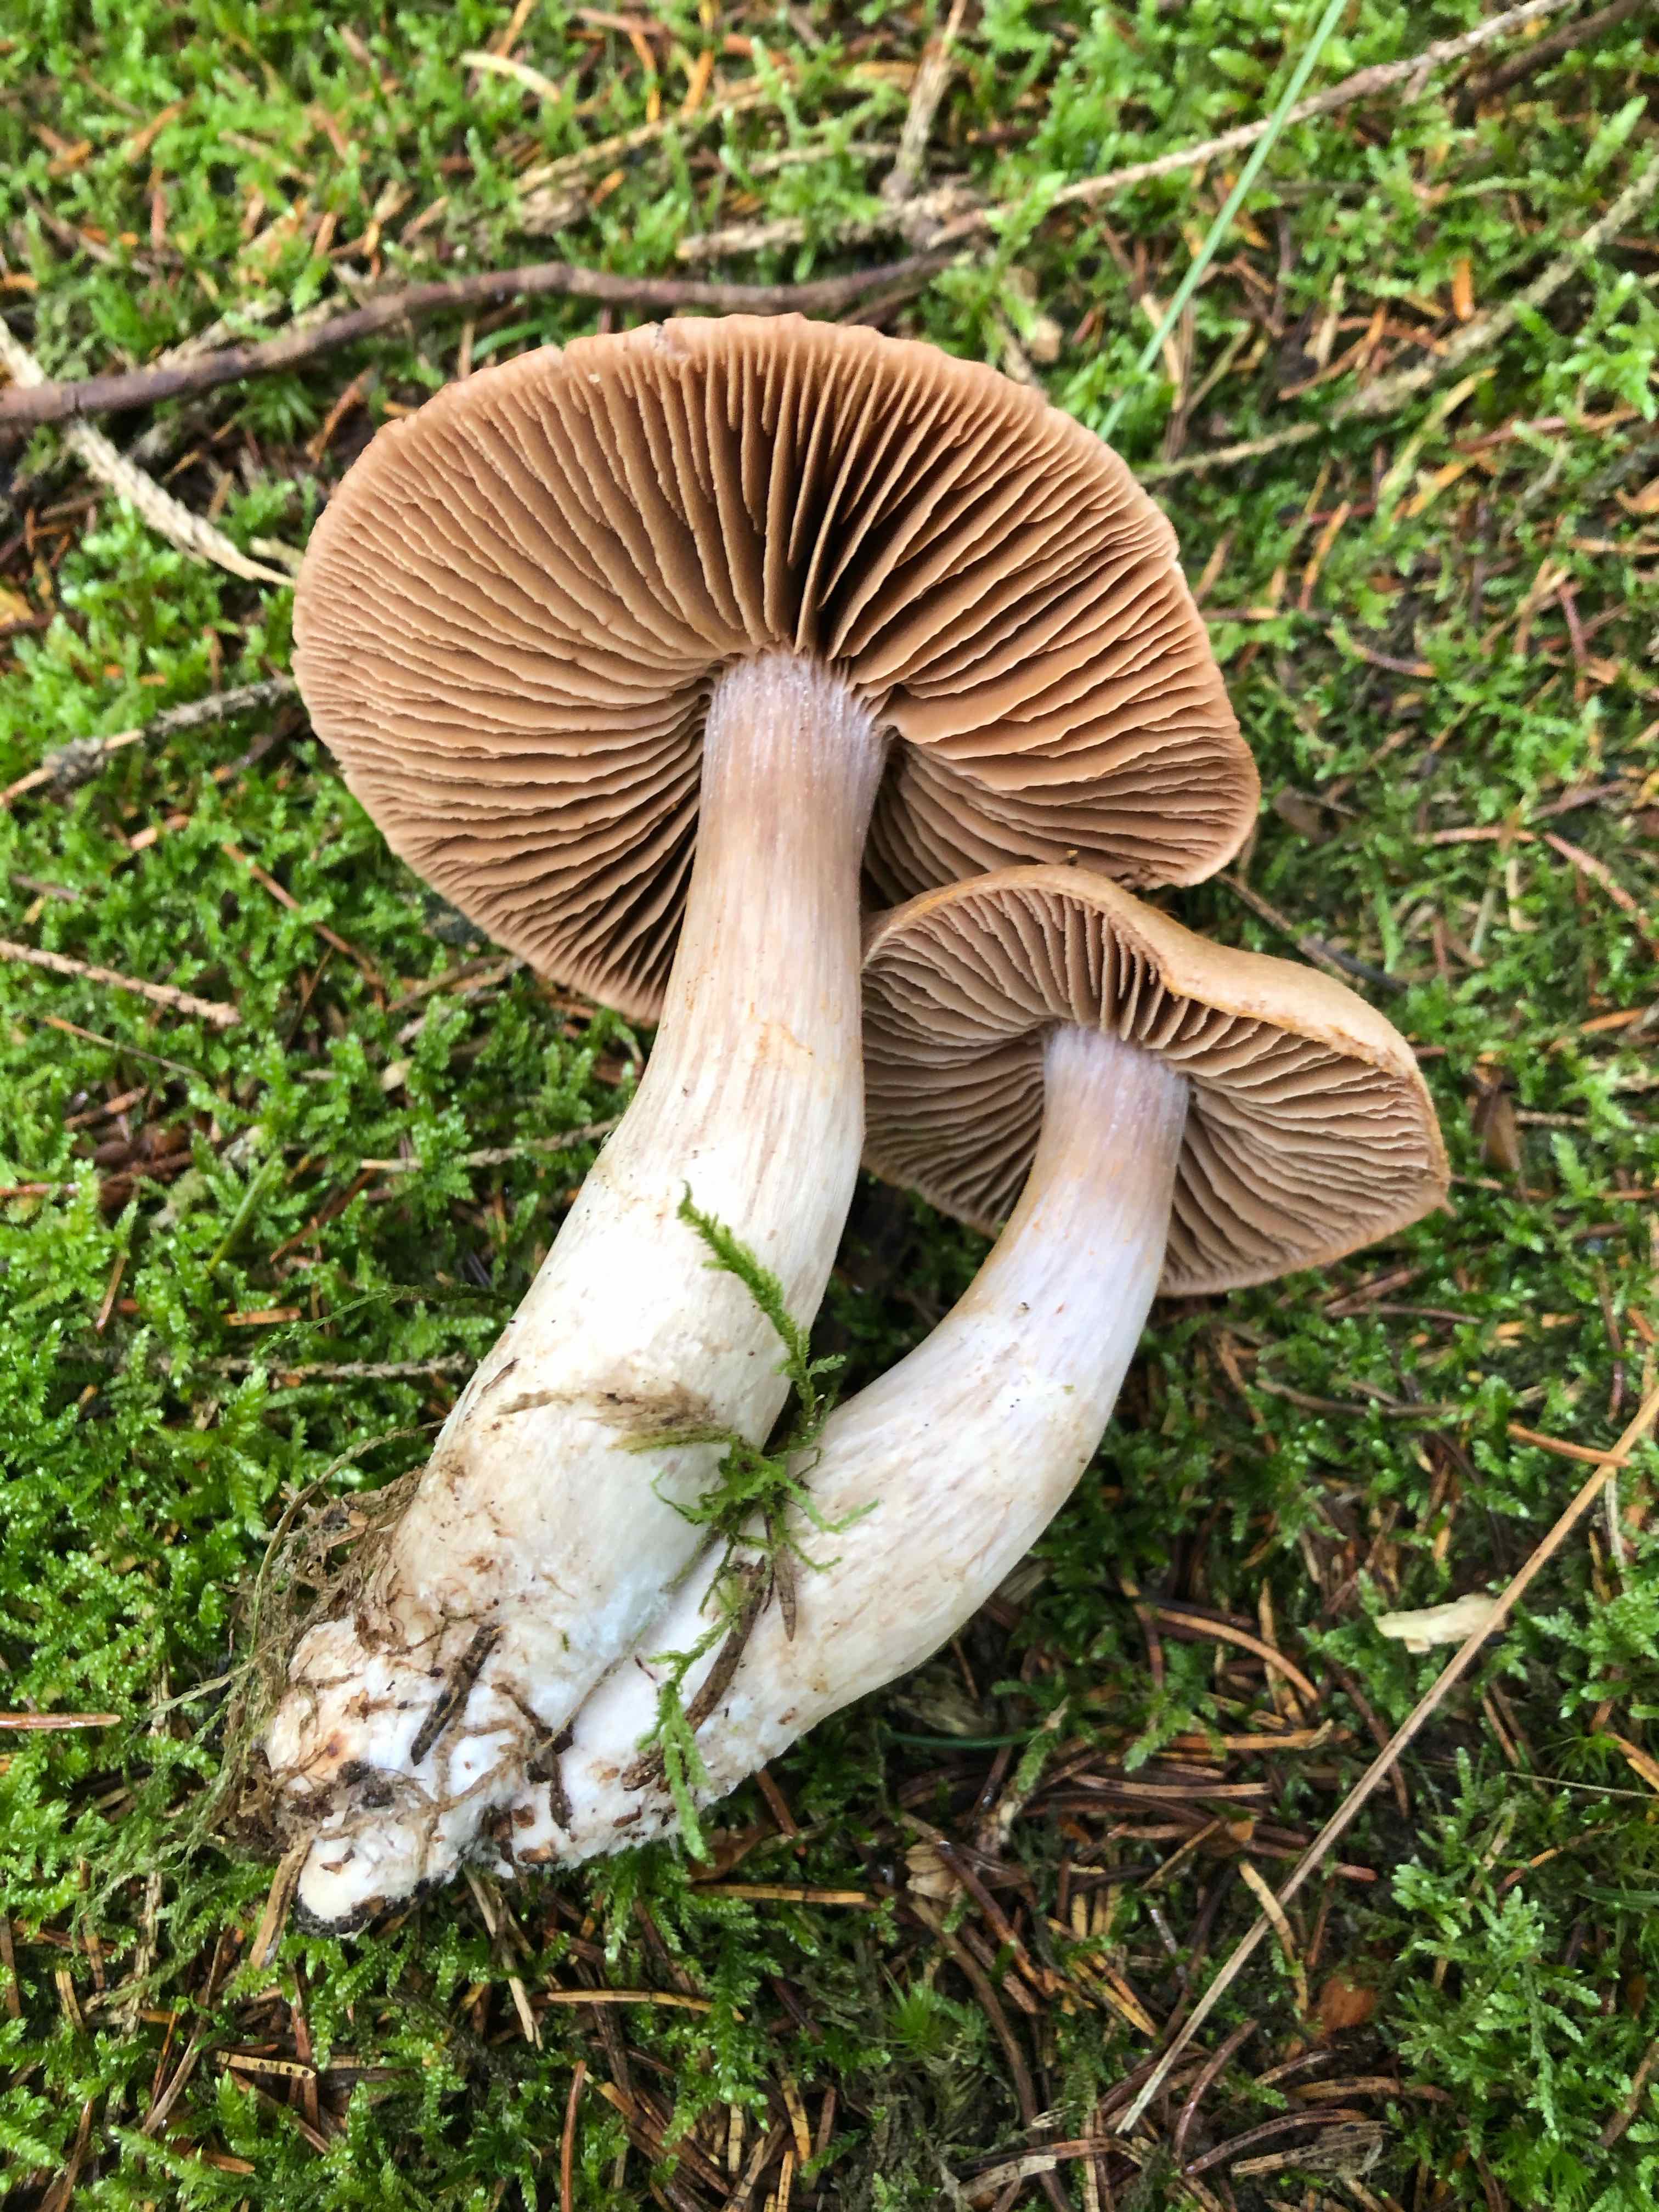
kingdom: Fungi
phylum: Basidiomycota
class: Agaricomycetes
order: Agaricales
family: Cortinariaceae
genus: Cortinarius
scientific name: Cortinarius
